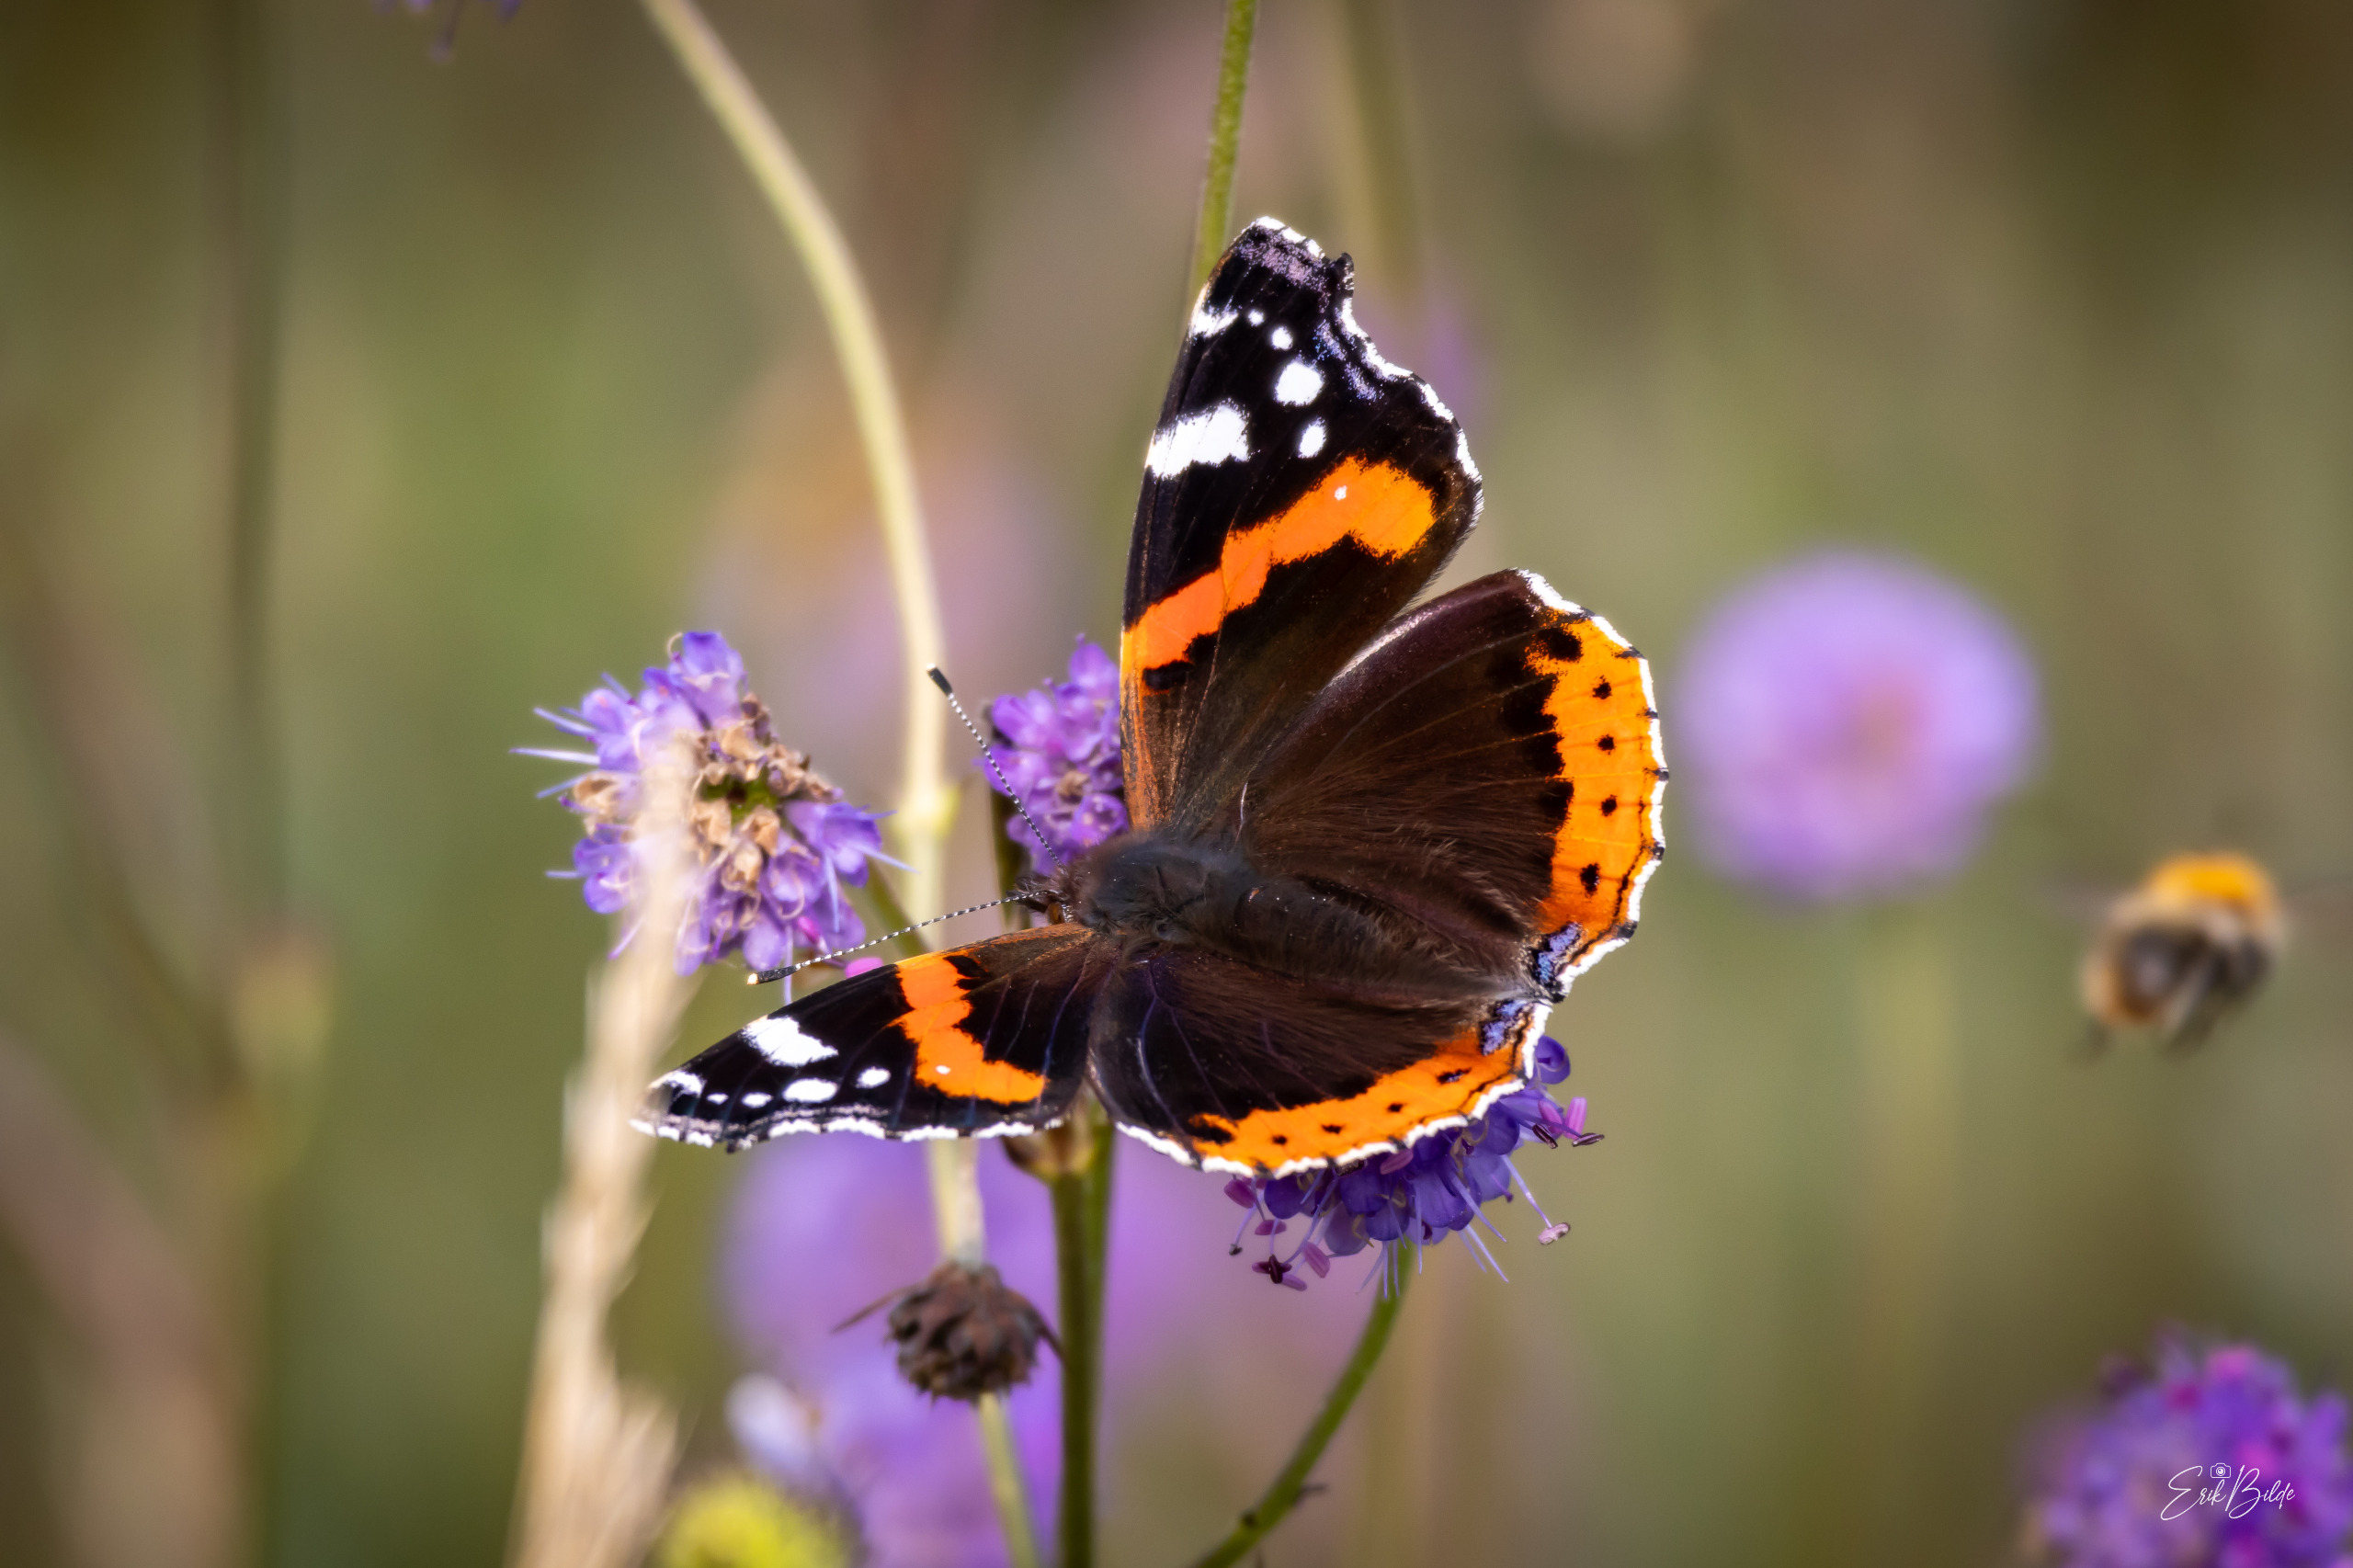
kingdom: Animalia
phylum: Arthropoda
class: Insecta
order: Lepidoptera
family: Nymphalidae
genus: Vanessa
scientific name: Vanessa atalanta
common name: Admiral
